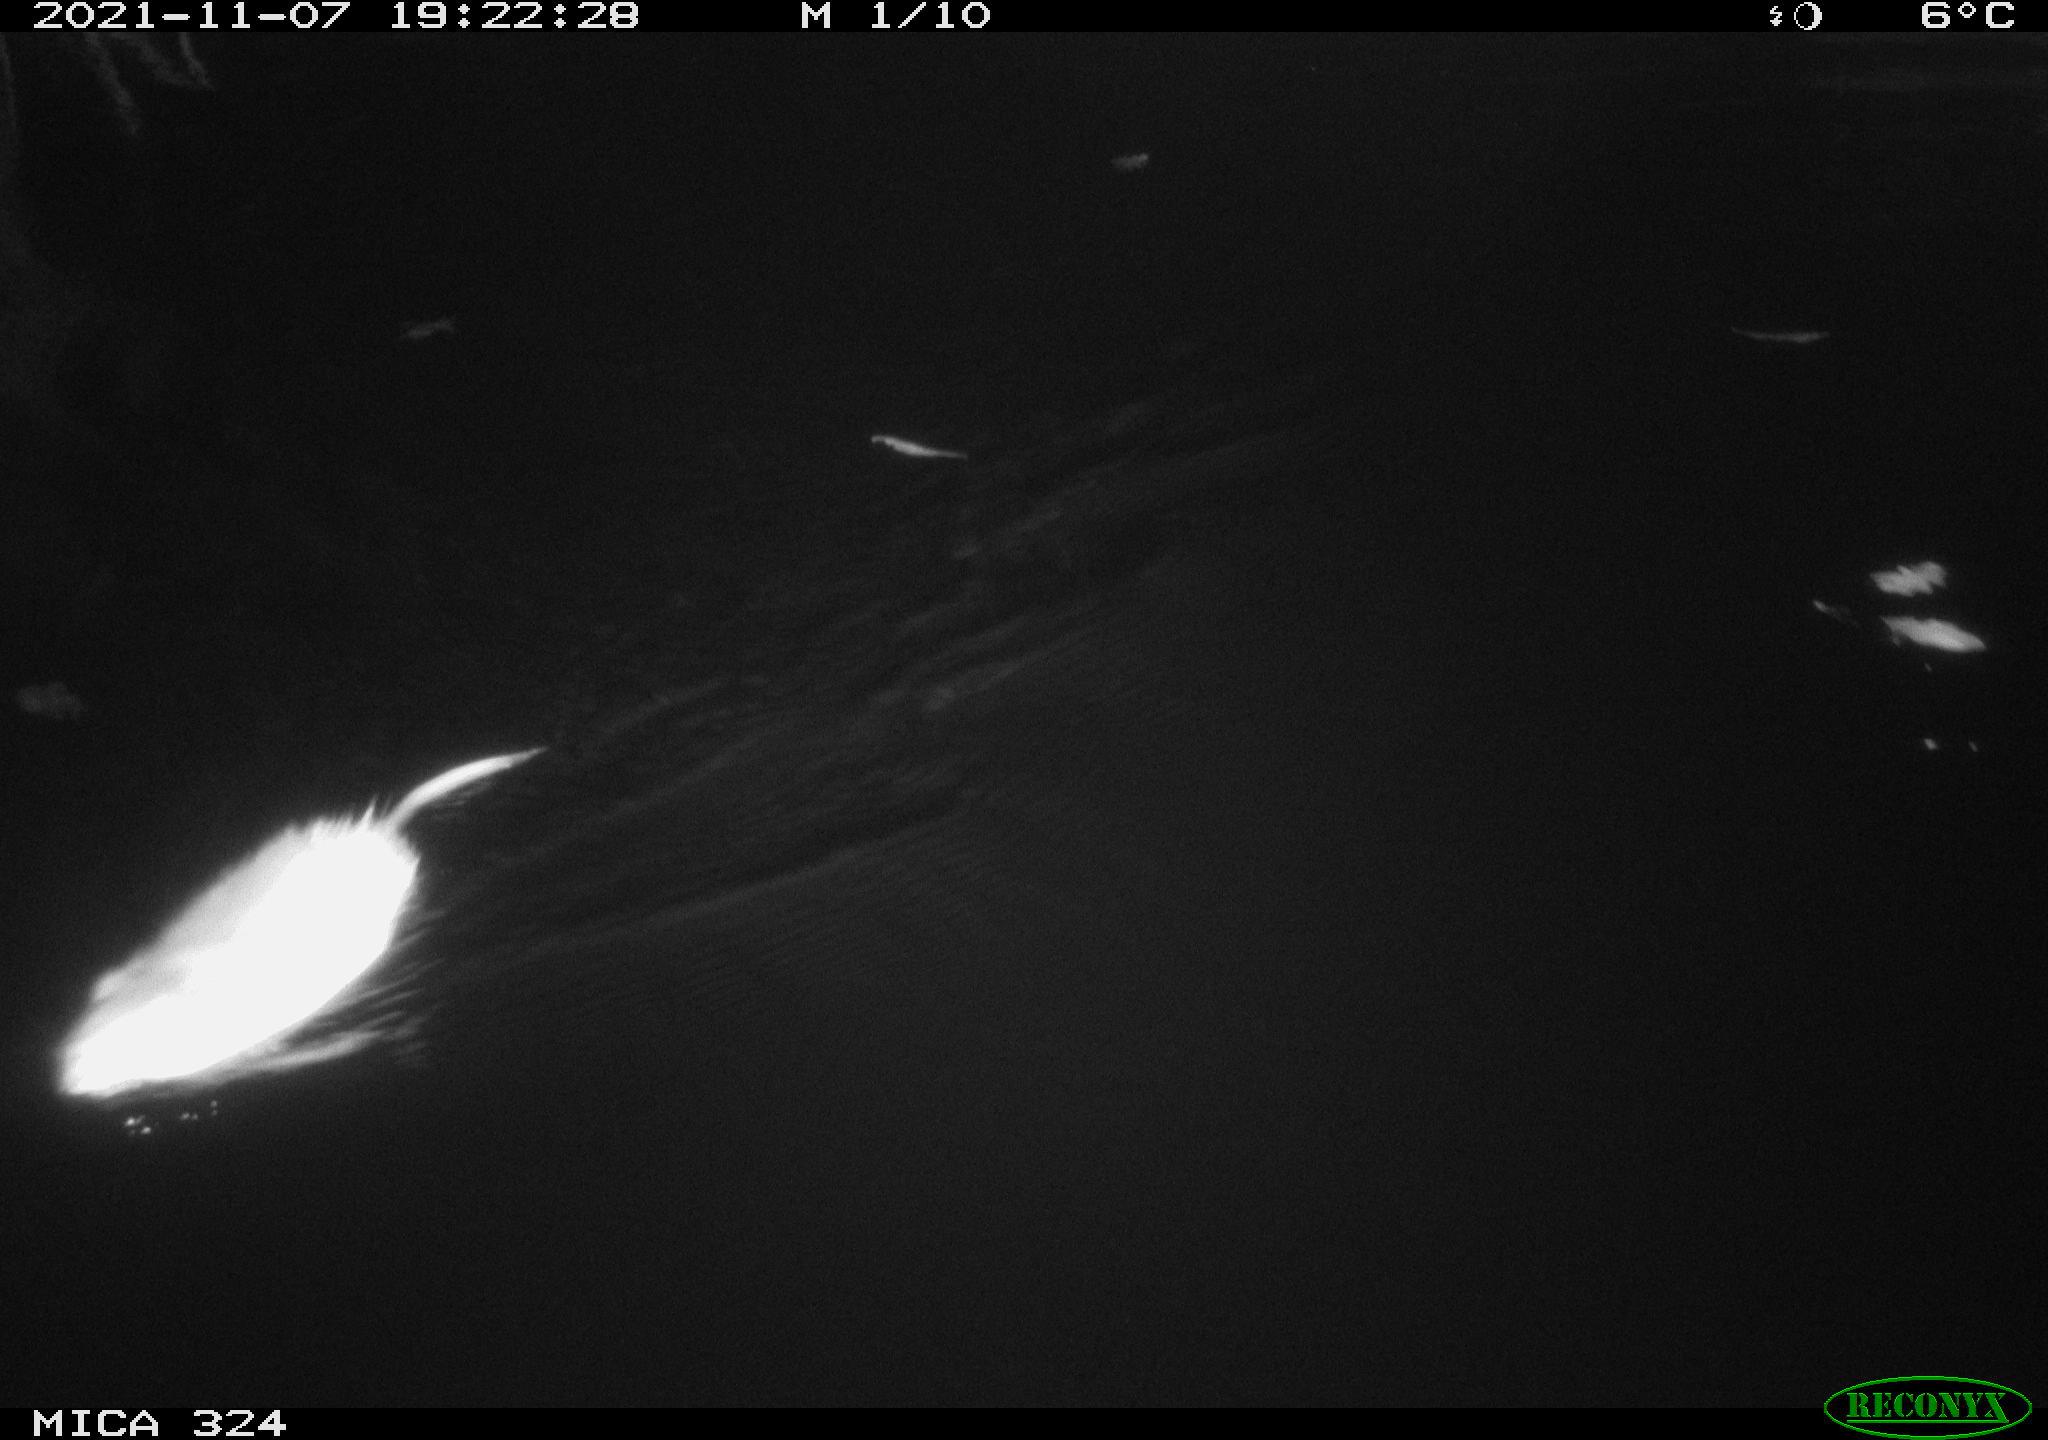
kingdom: Animalia
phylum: Chordata
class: Mammalia
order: Rodentia
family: Cricetidae
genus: Ondatra
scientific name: Ondatra zibethicus
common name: Muskrat
